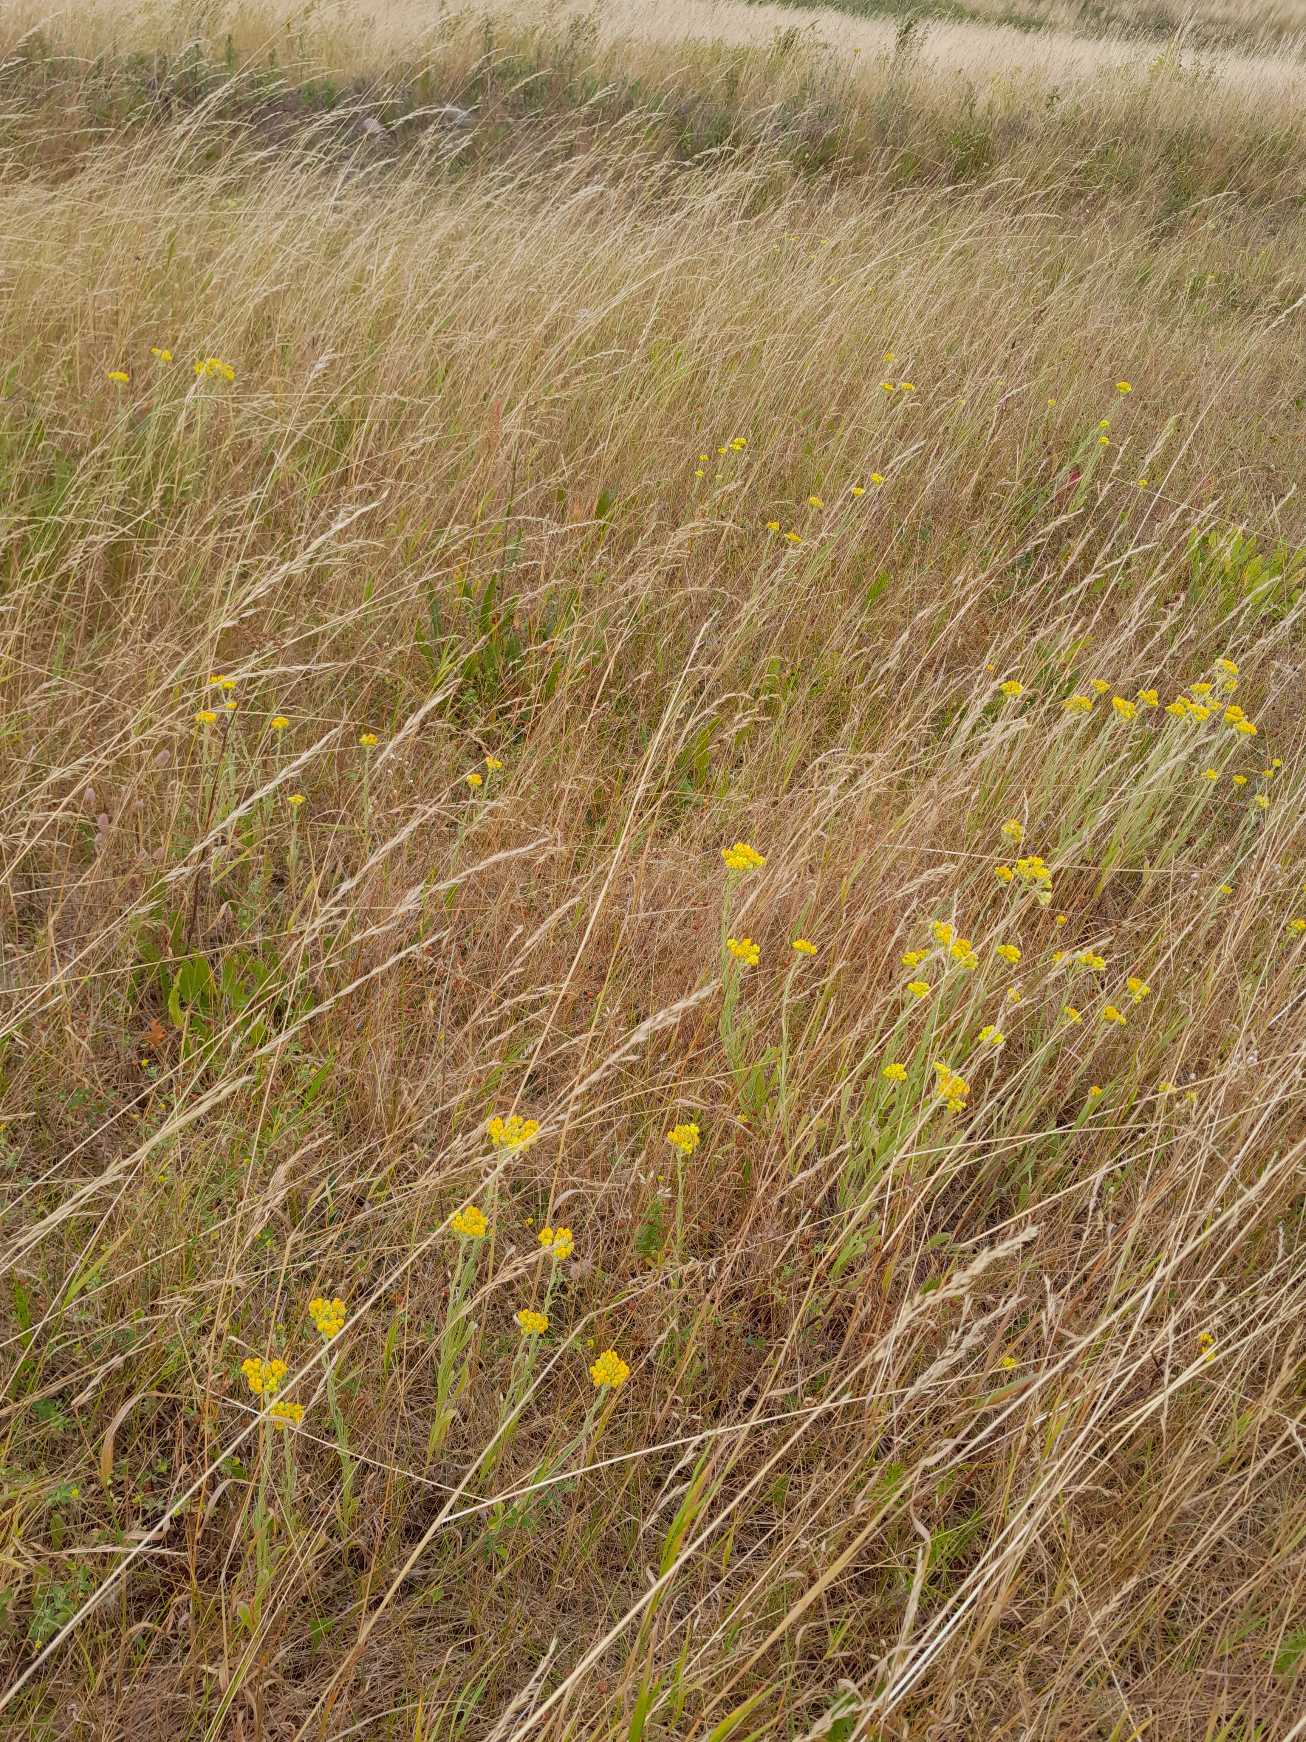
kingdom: Plantae
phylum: Tracheophyta
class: Magnoliopsida
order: Asterales
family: Asteraceae
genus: Helichrysum
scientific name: Helichrysum arenarium
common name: Gul evighedsblomst
